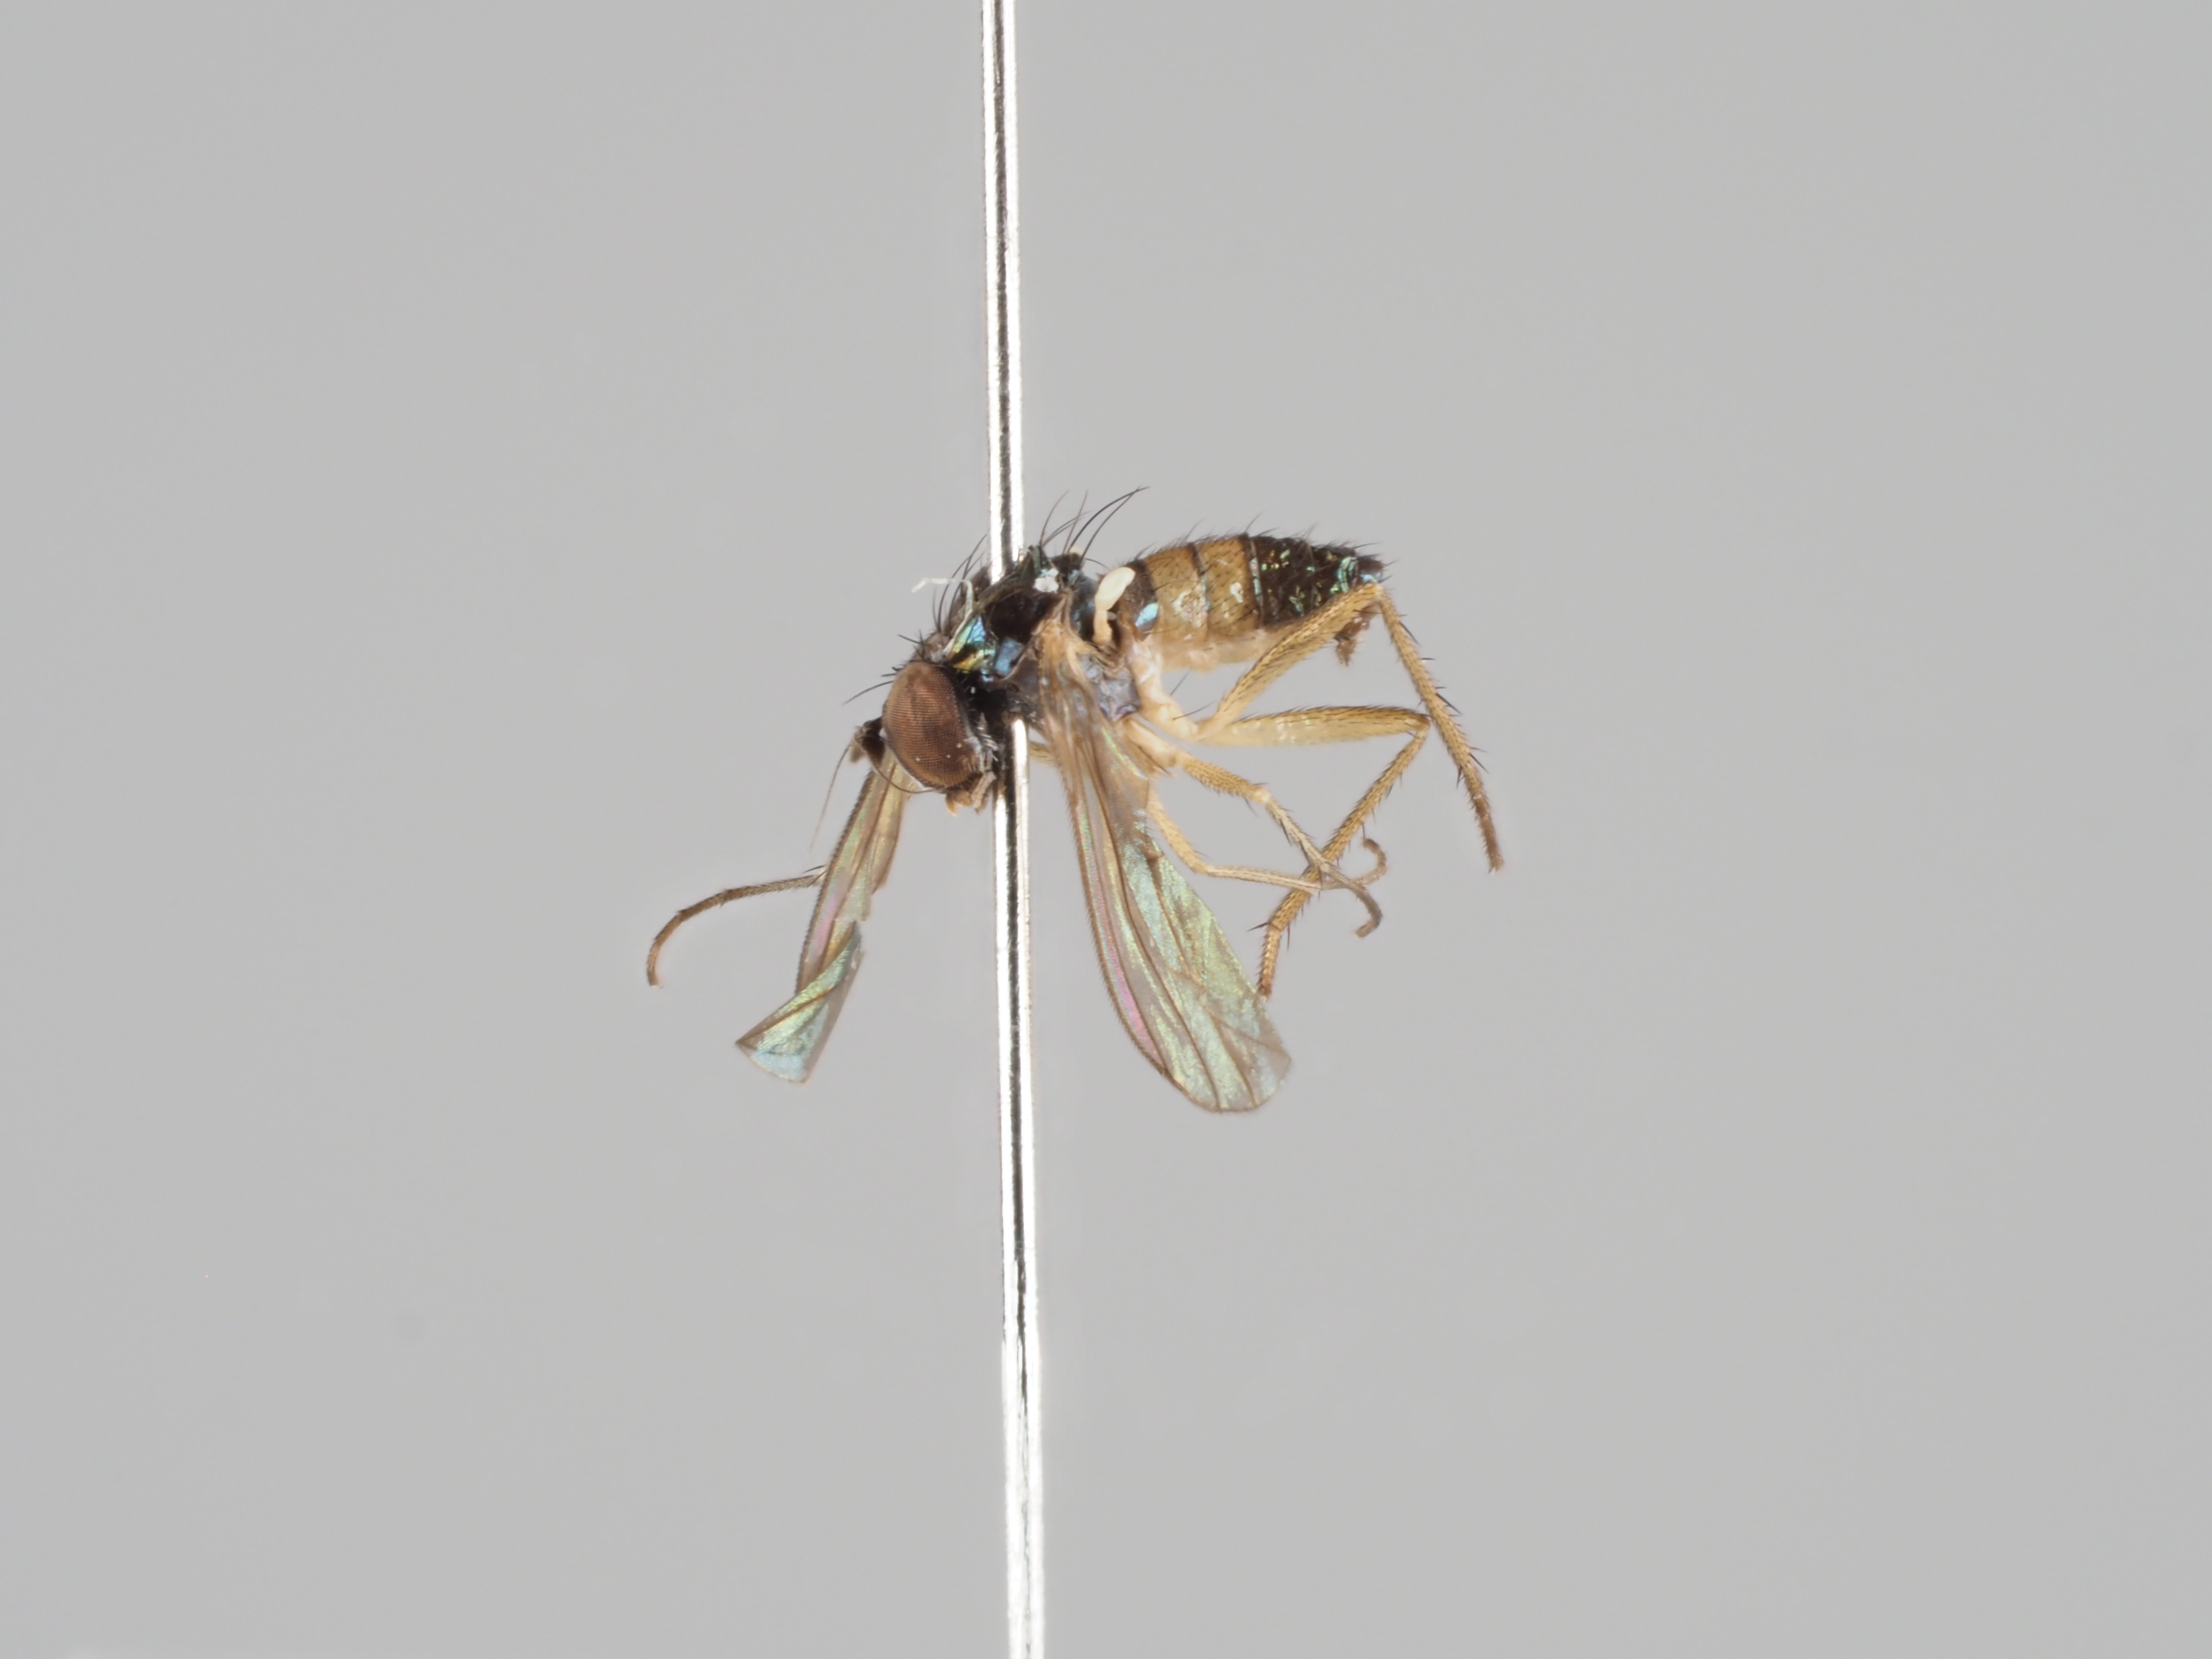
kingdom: Animalia
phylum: Arthropoda
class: Insecta
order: Diptera
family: Dolichopodidae
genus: Lamprochromus
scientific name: Lamprochromus semiflavus
